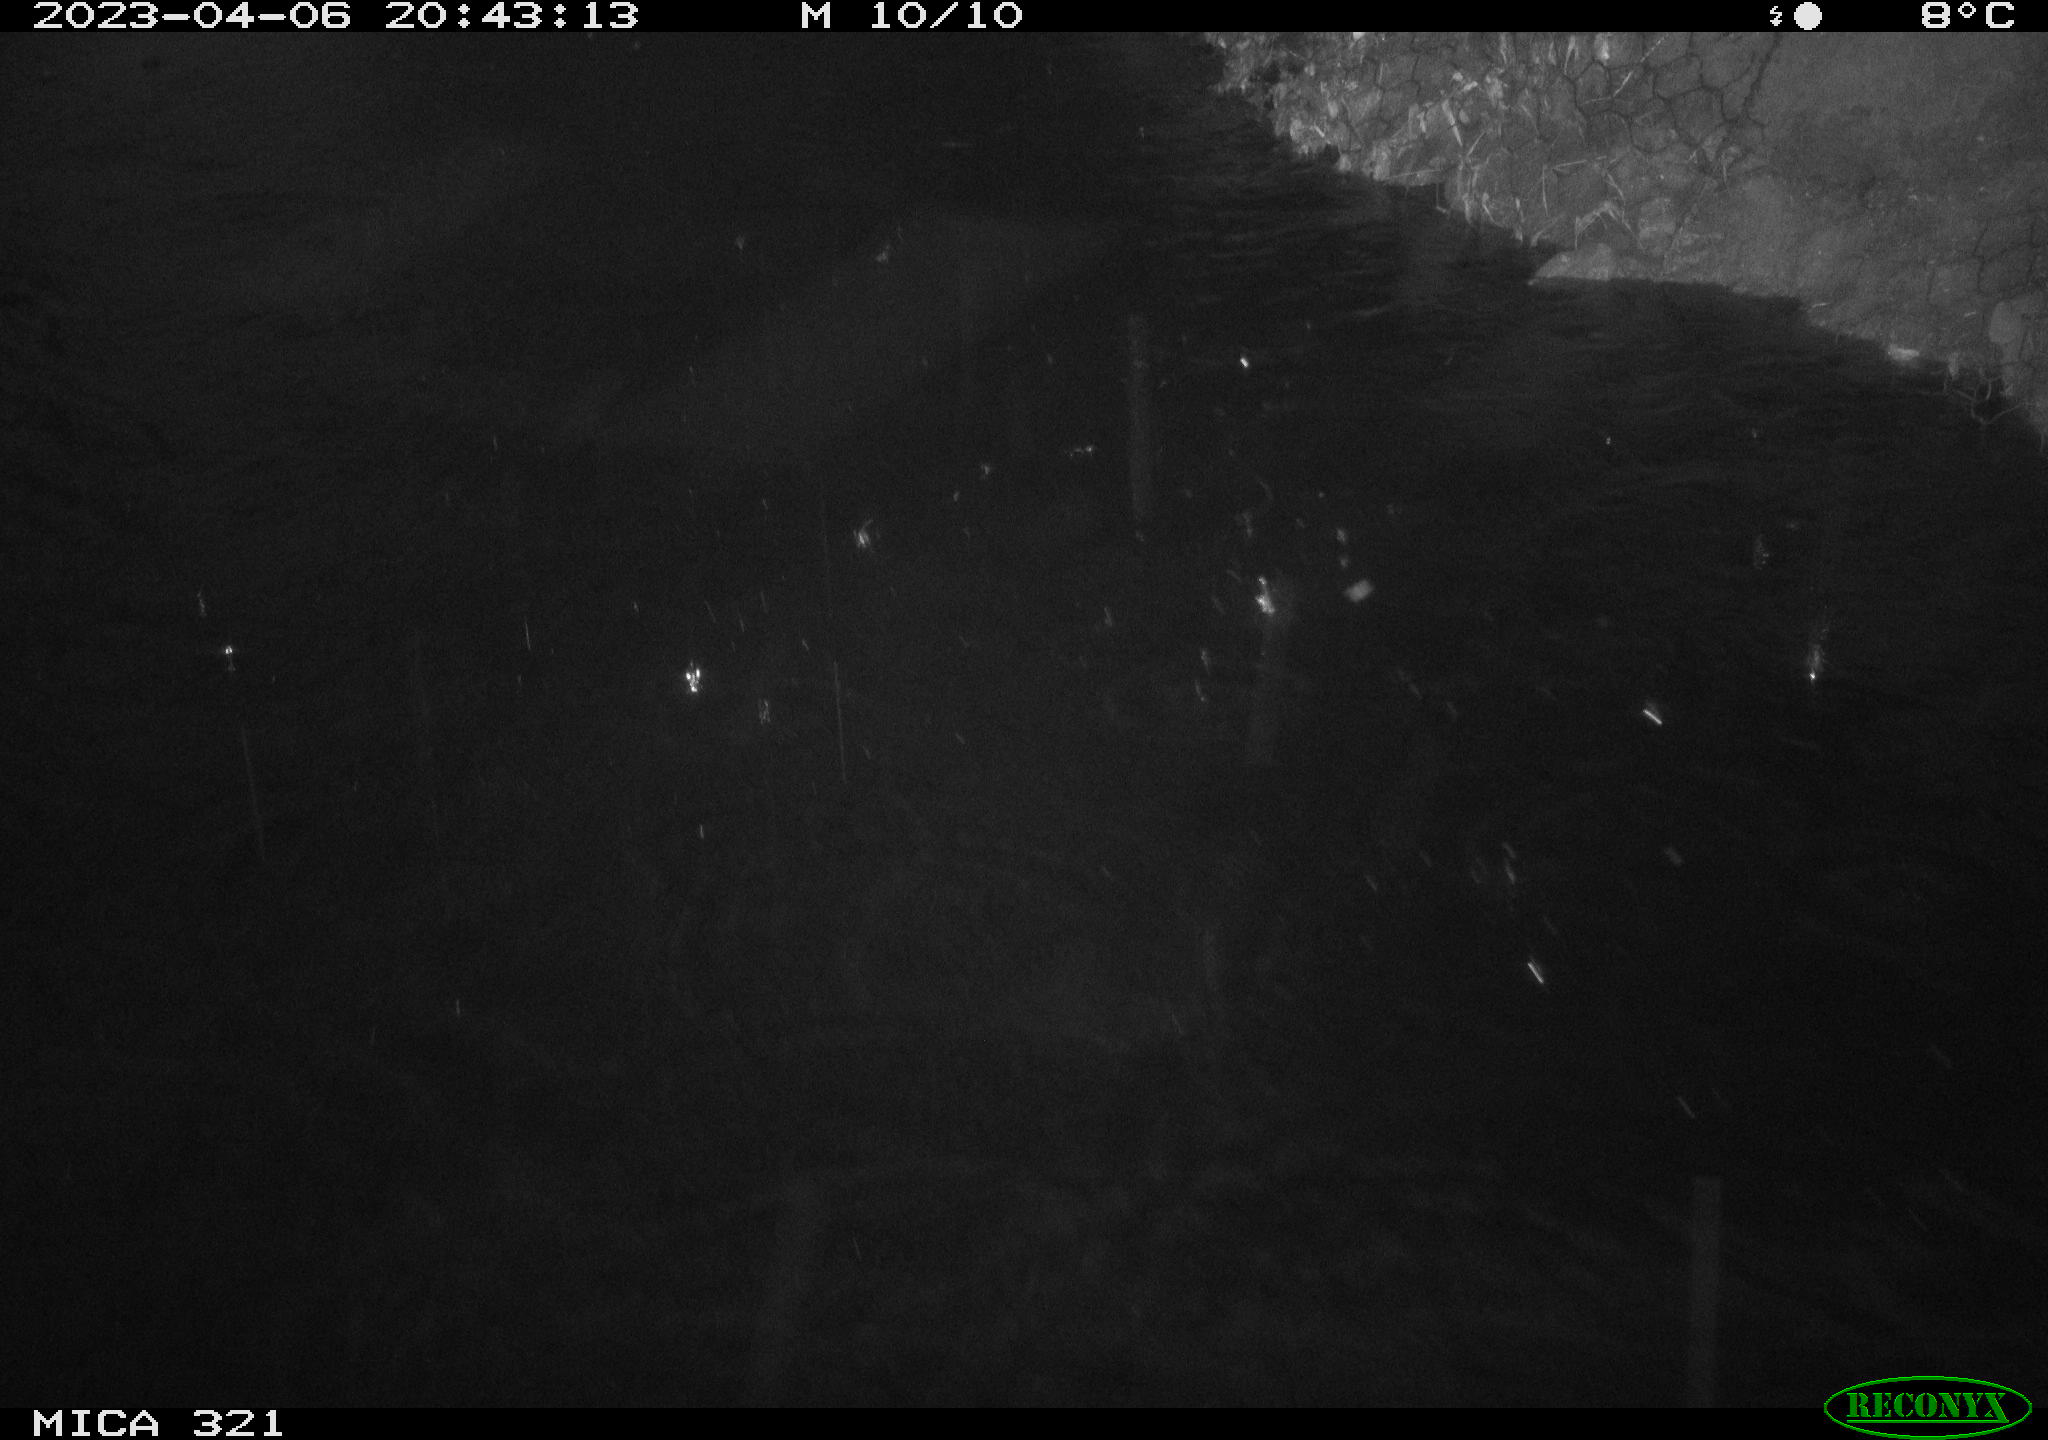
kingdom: Animalia
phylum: Chordata
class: Mammalia
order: Rodentia
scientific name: Rodentia
